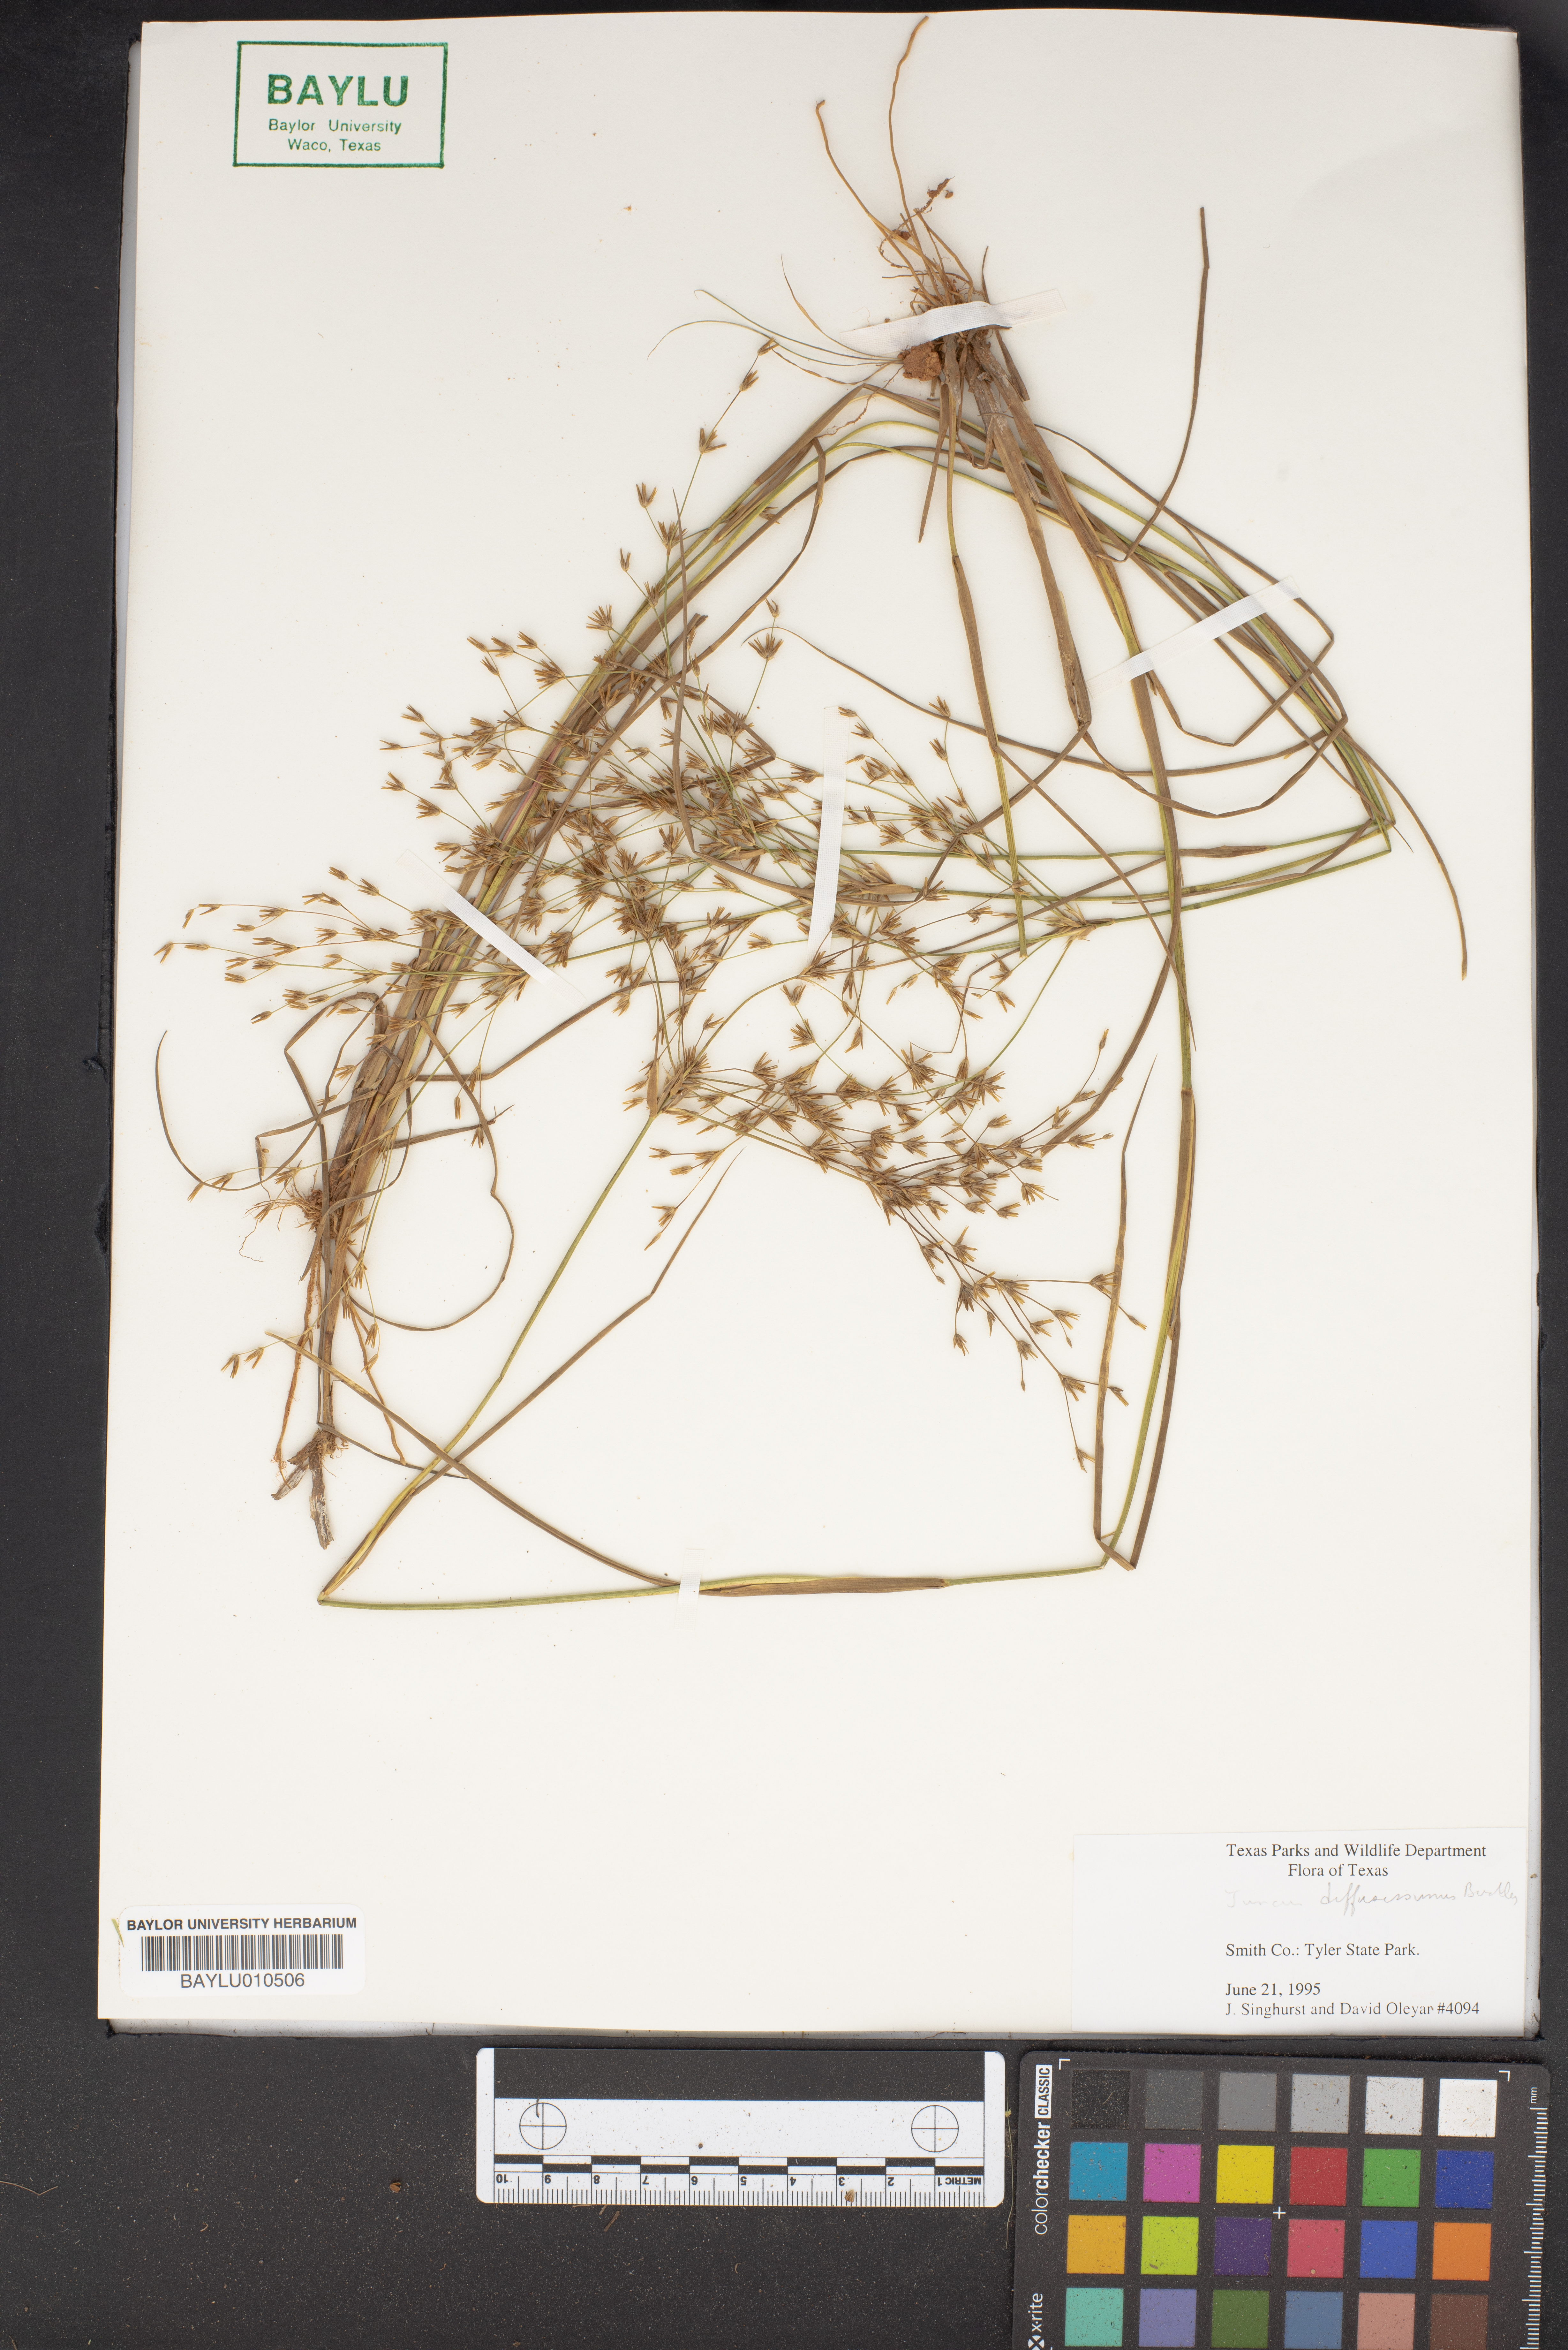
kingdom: Plantae
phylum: Tracheophyta
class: Liliopsida
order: Poales
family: Juncaceae
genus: Juncus
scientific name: Juncus diffusissimus
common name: Slimpod rush
